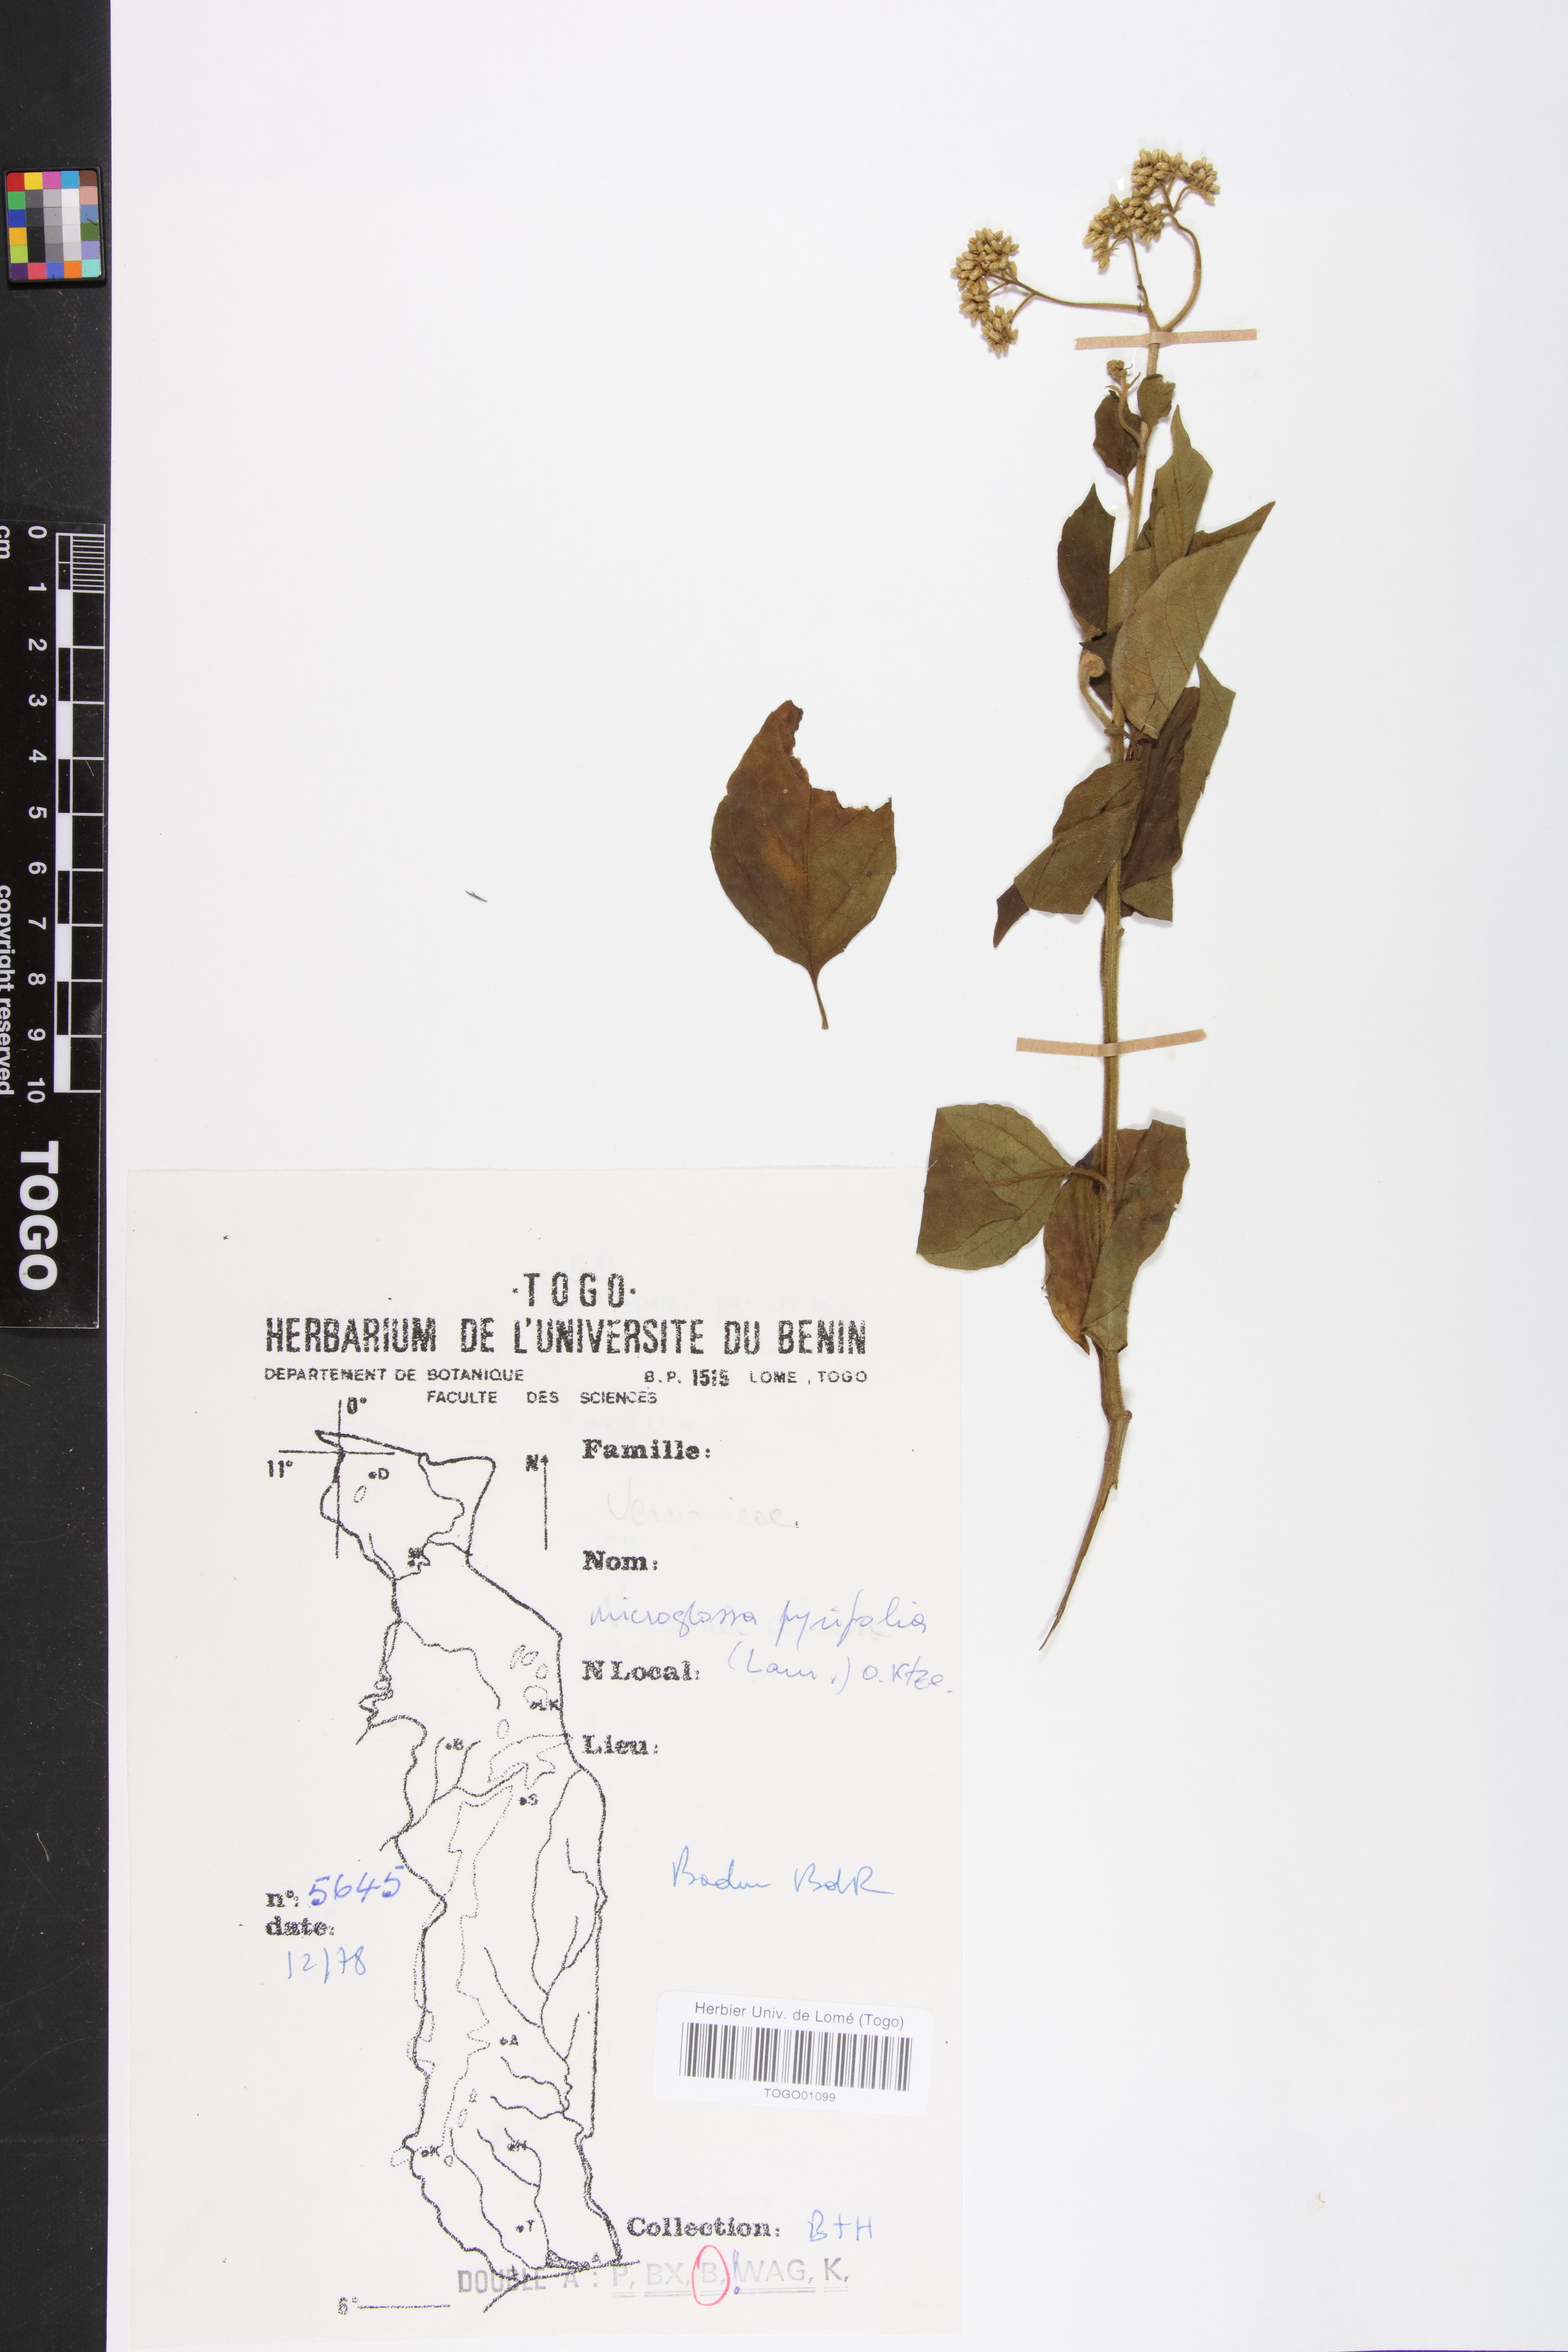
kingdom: Plantae
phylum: Tracheophyta
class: Magnoliopsida
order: Asterales
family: Asteraceae
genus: Microglossa
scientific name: Microglossa pyrifolia
